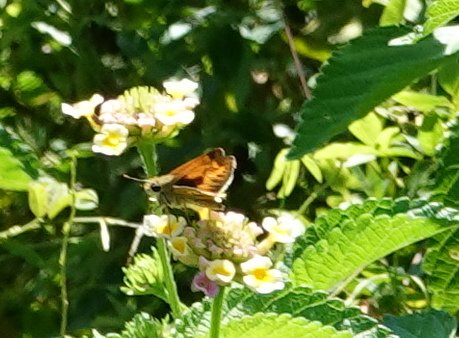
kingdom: Animalia
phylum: Arthropoda
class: Insecta
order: Lepidoptera
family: Hesperiidae
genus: Hylephila
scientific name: Hylephila phyleus
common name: Fiery Skipper
